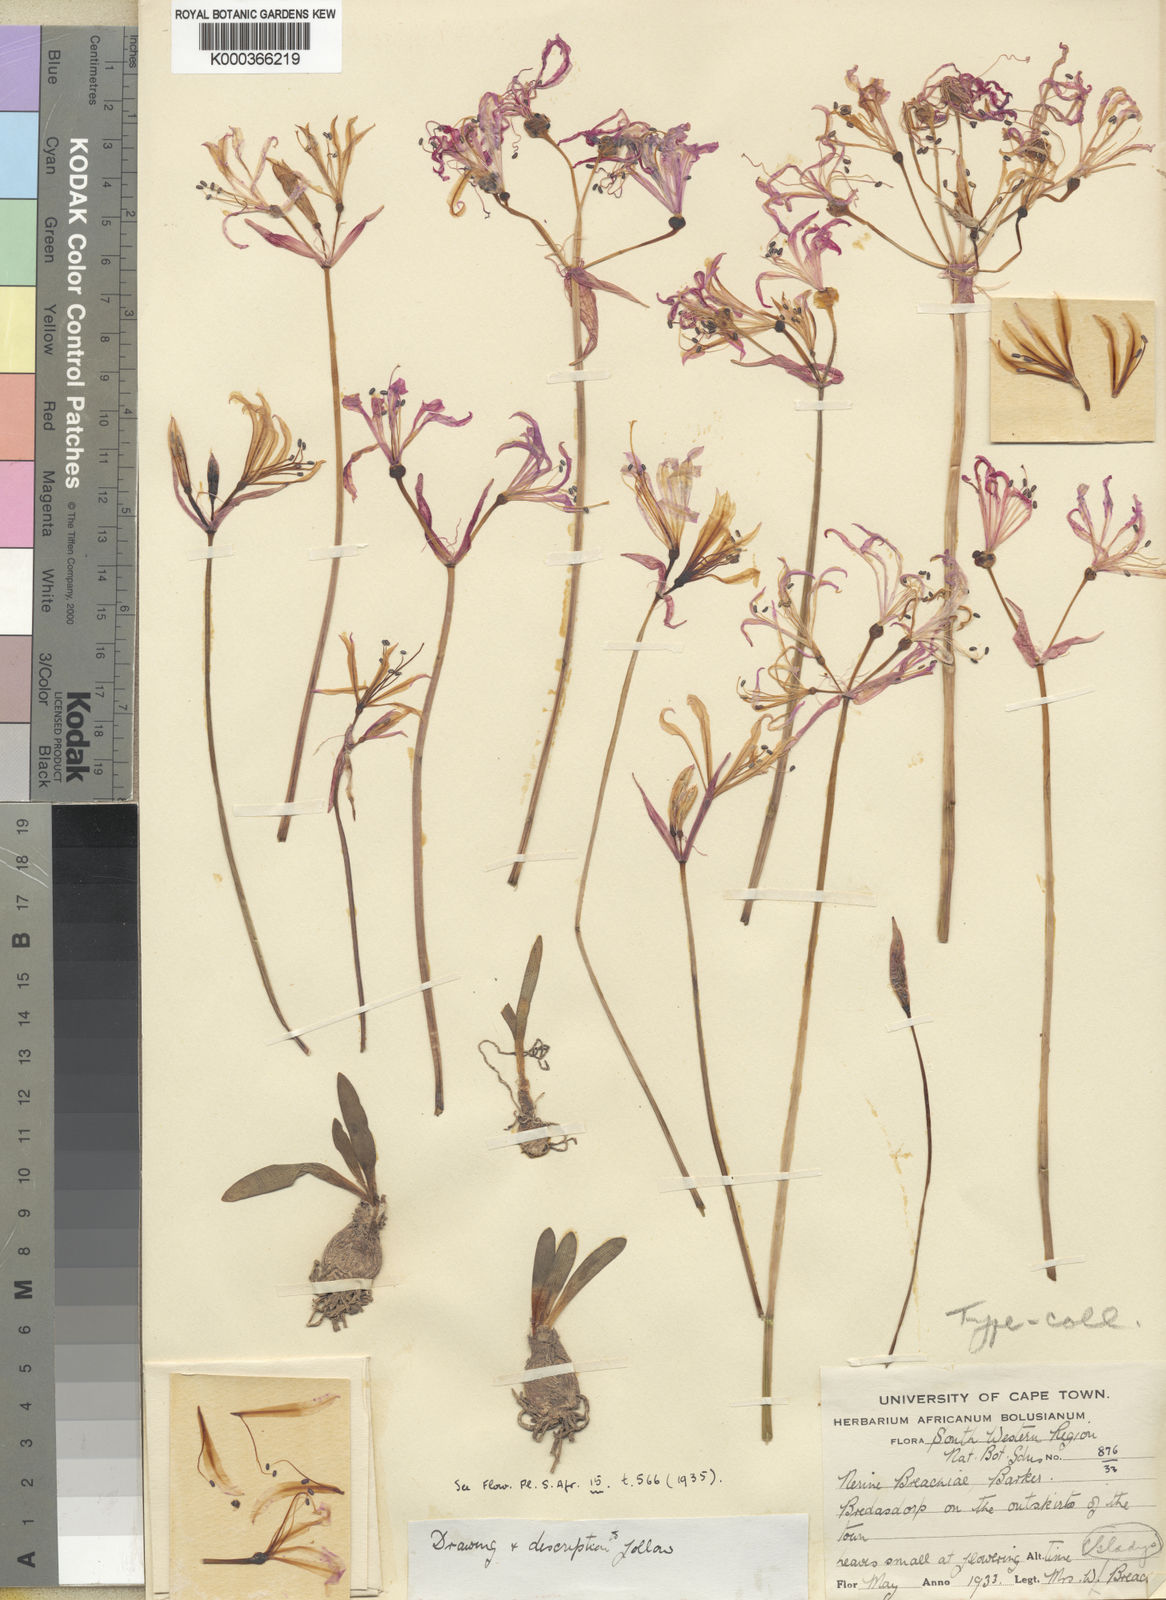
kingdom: Plantae
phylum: Tracheophyta
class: Liliopsida
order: Asparagales
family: Amaryllidaceae
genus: Nerine
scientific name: Nerine humilis
